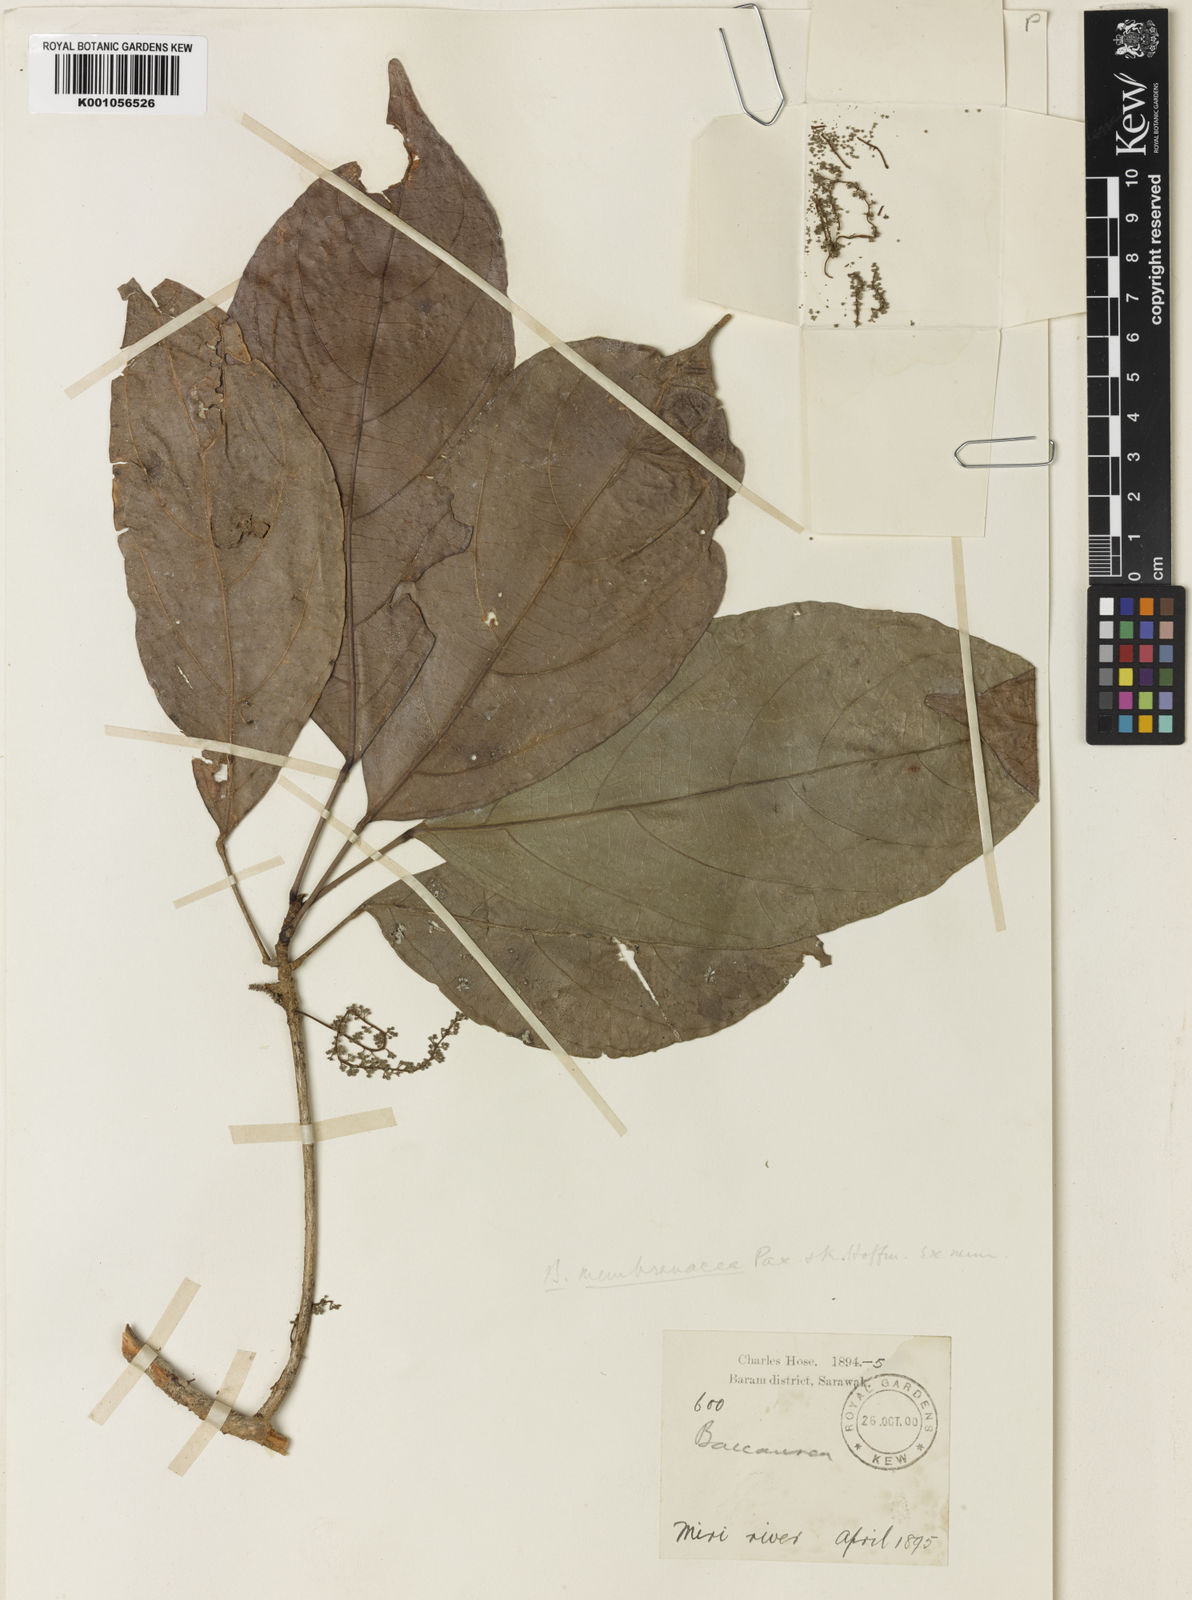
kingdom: Plantae
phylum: Tracheophyta
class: Magnoliopsida
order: Malpighiales
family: Phyllanthaceae
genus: Baccaurea
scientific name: Baccaurea odoratissima
